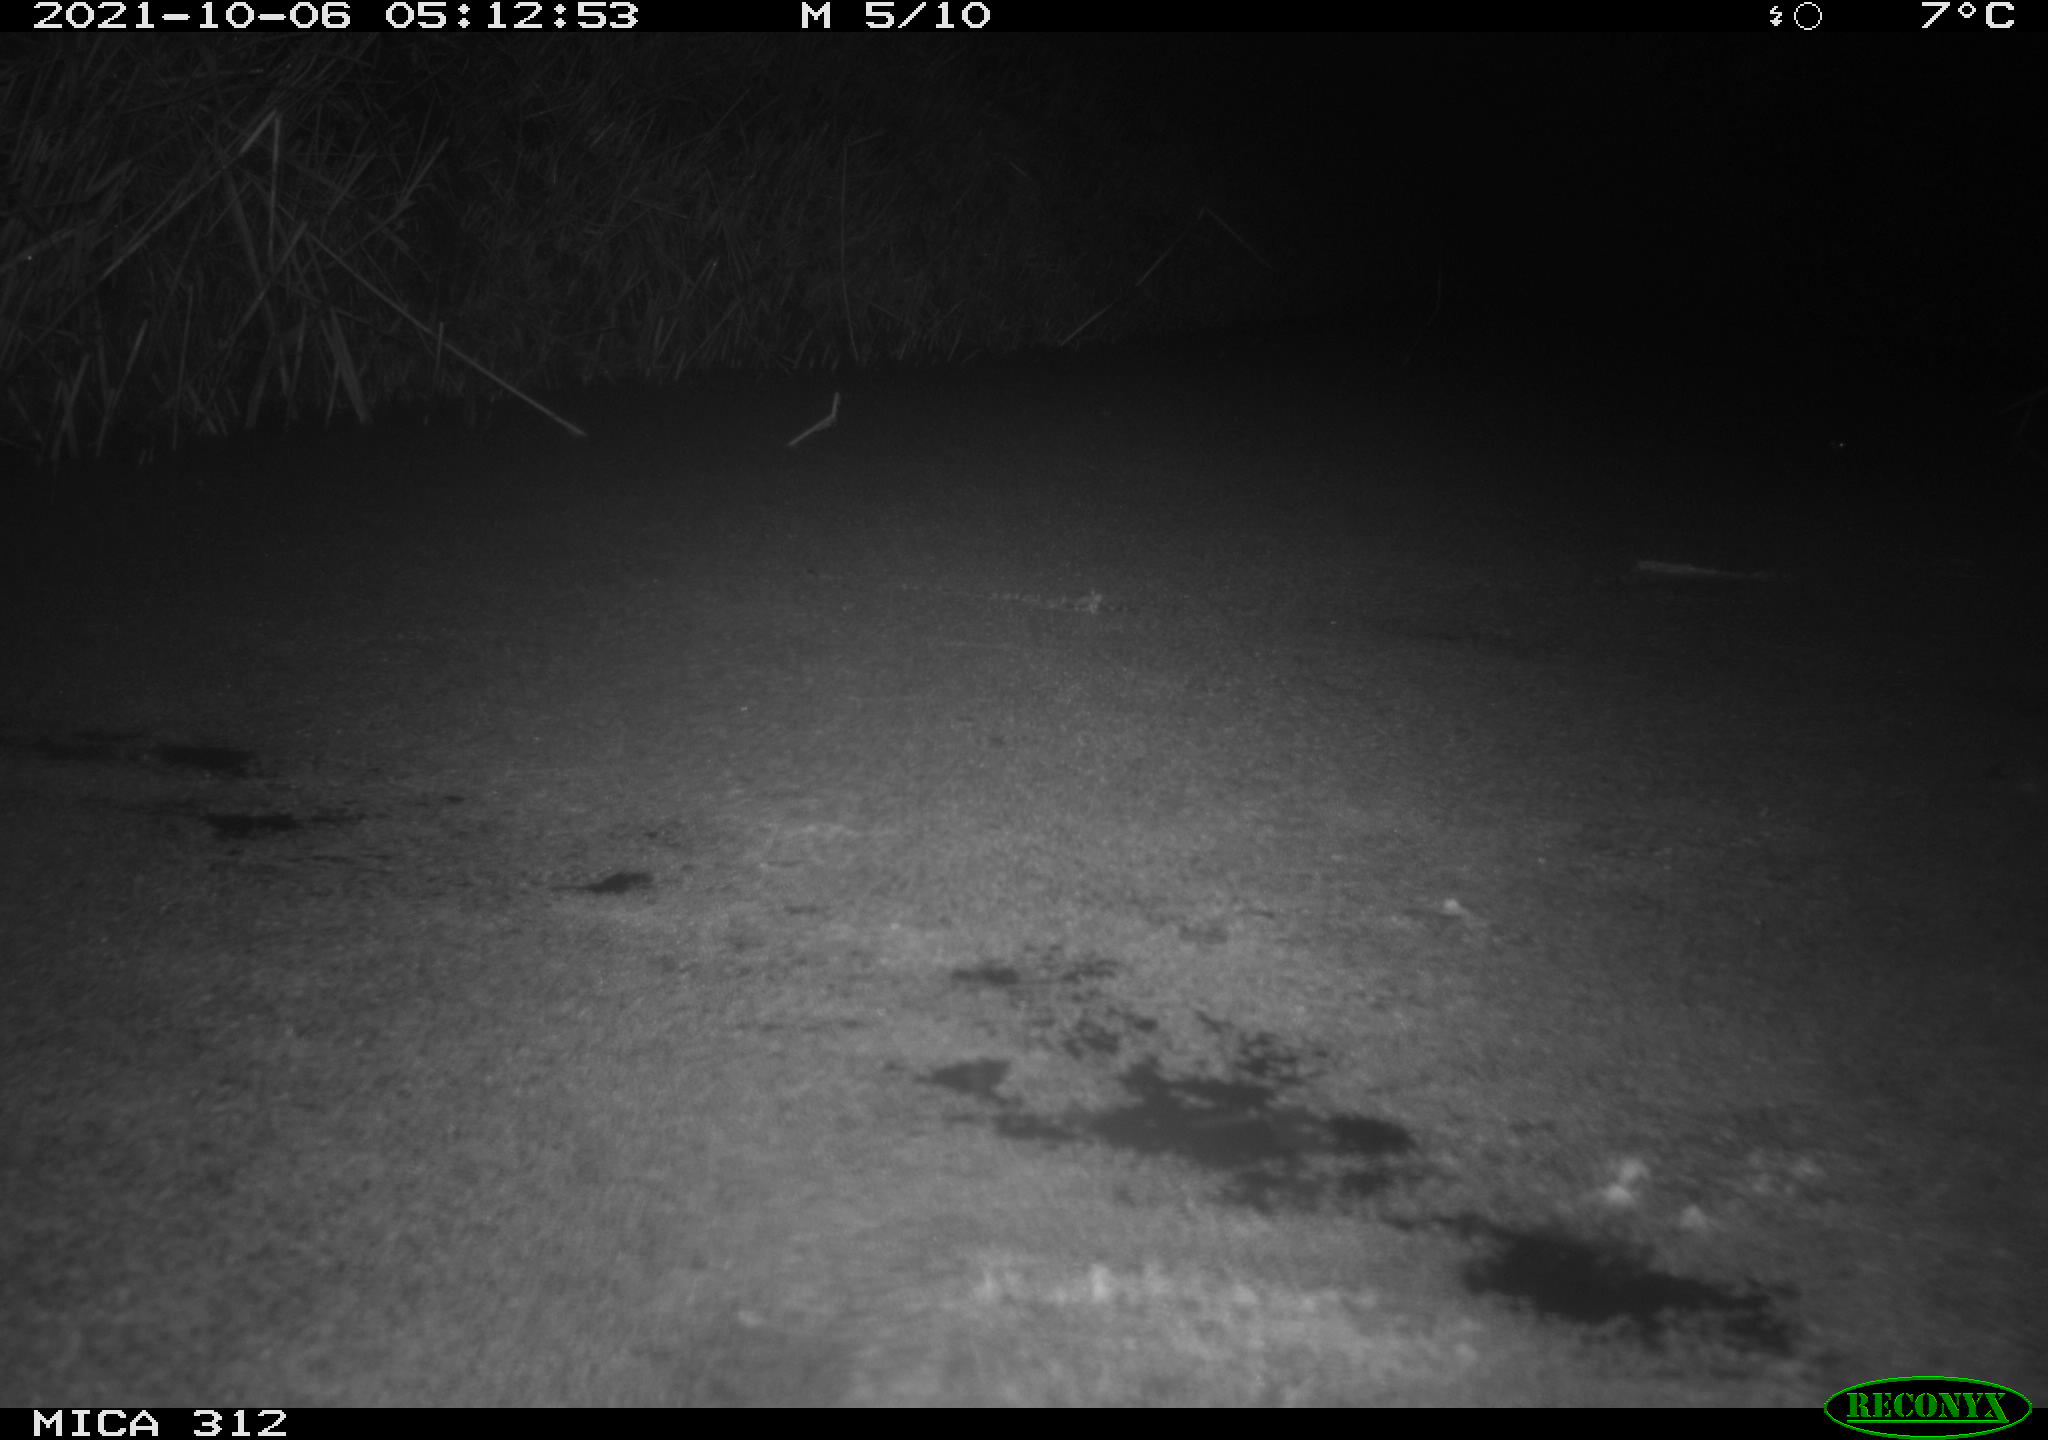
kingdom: Animalia
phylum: Chordata
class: Mammalia
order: Rodentia
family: Muridae
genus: Rattus
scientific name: Rattus norvegicus
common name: Brown rat
